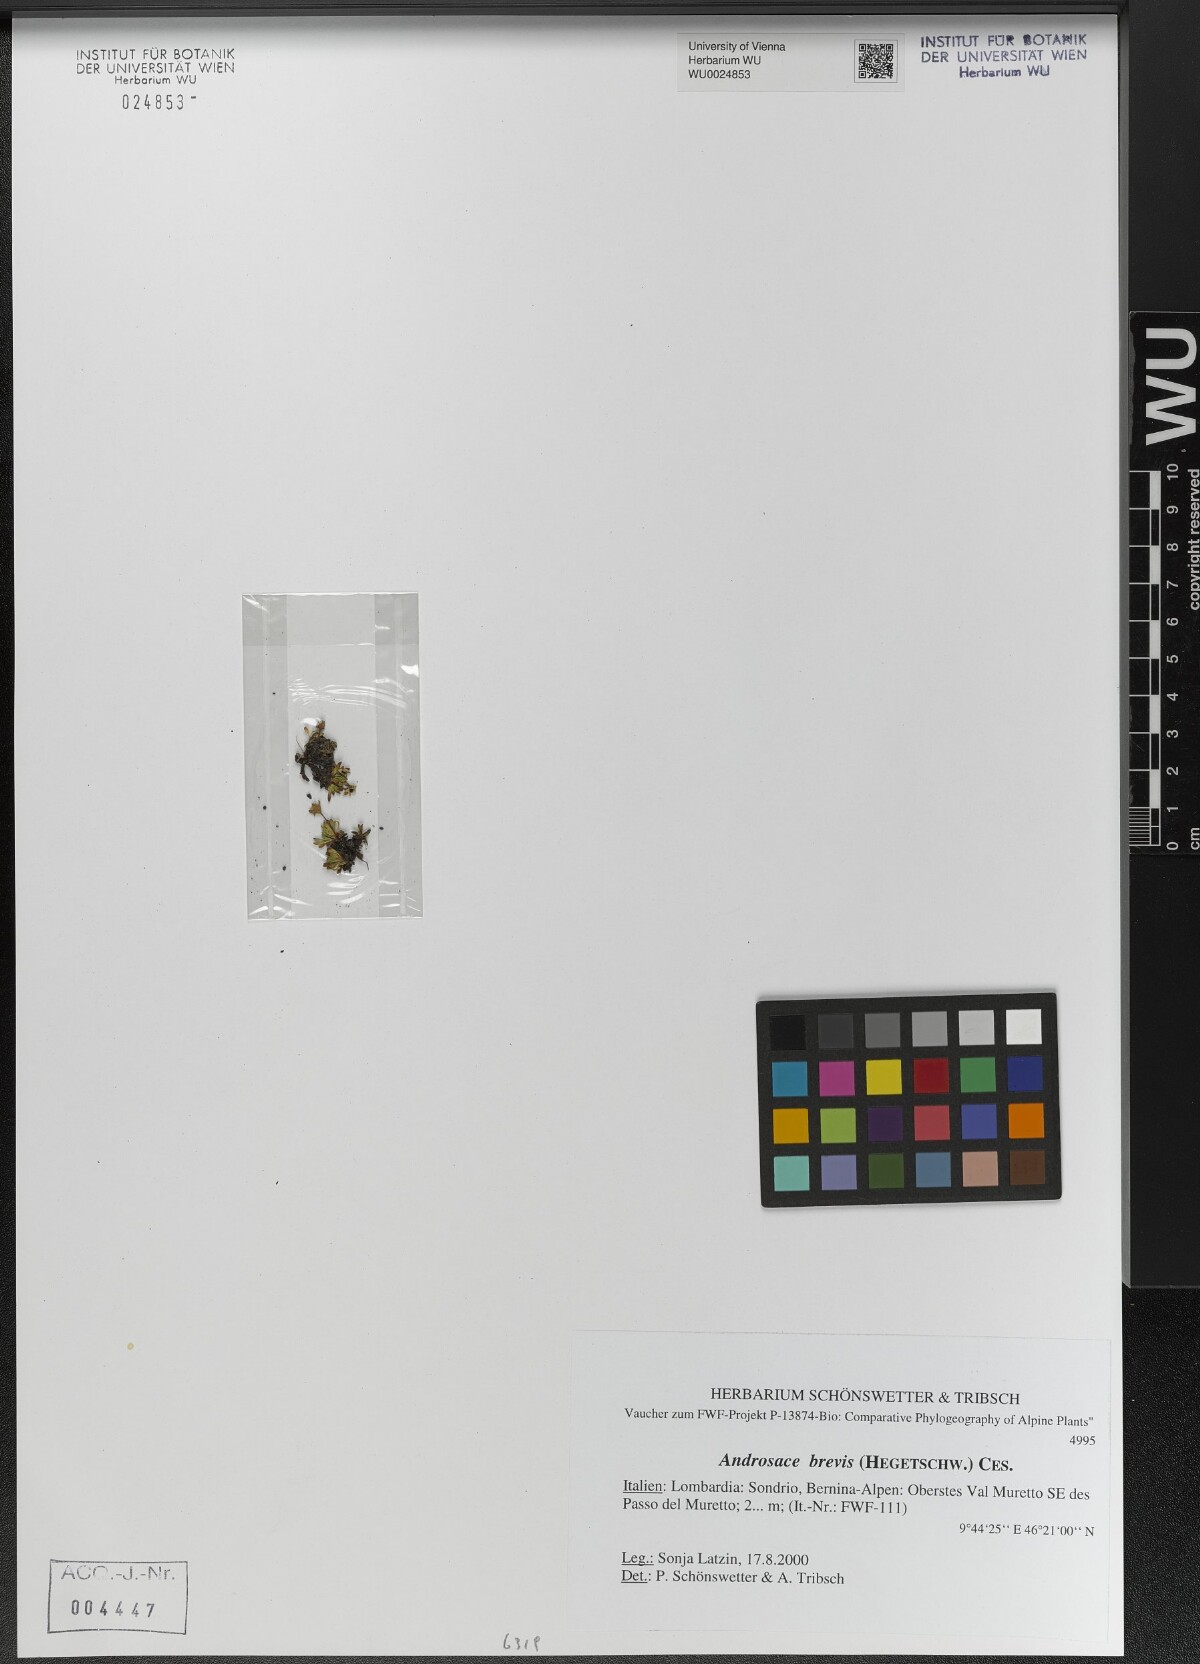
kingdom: Plantae
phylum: Tracheophyta
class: Magnoliopsida
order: Ericales
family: Primulaceae
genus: Androsace
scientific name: Androsace brevis
